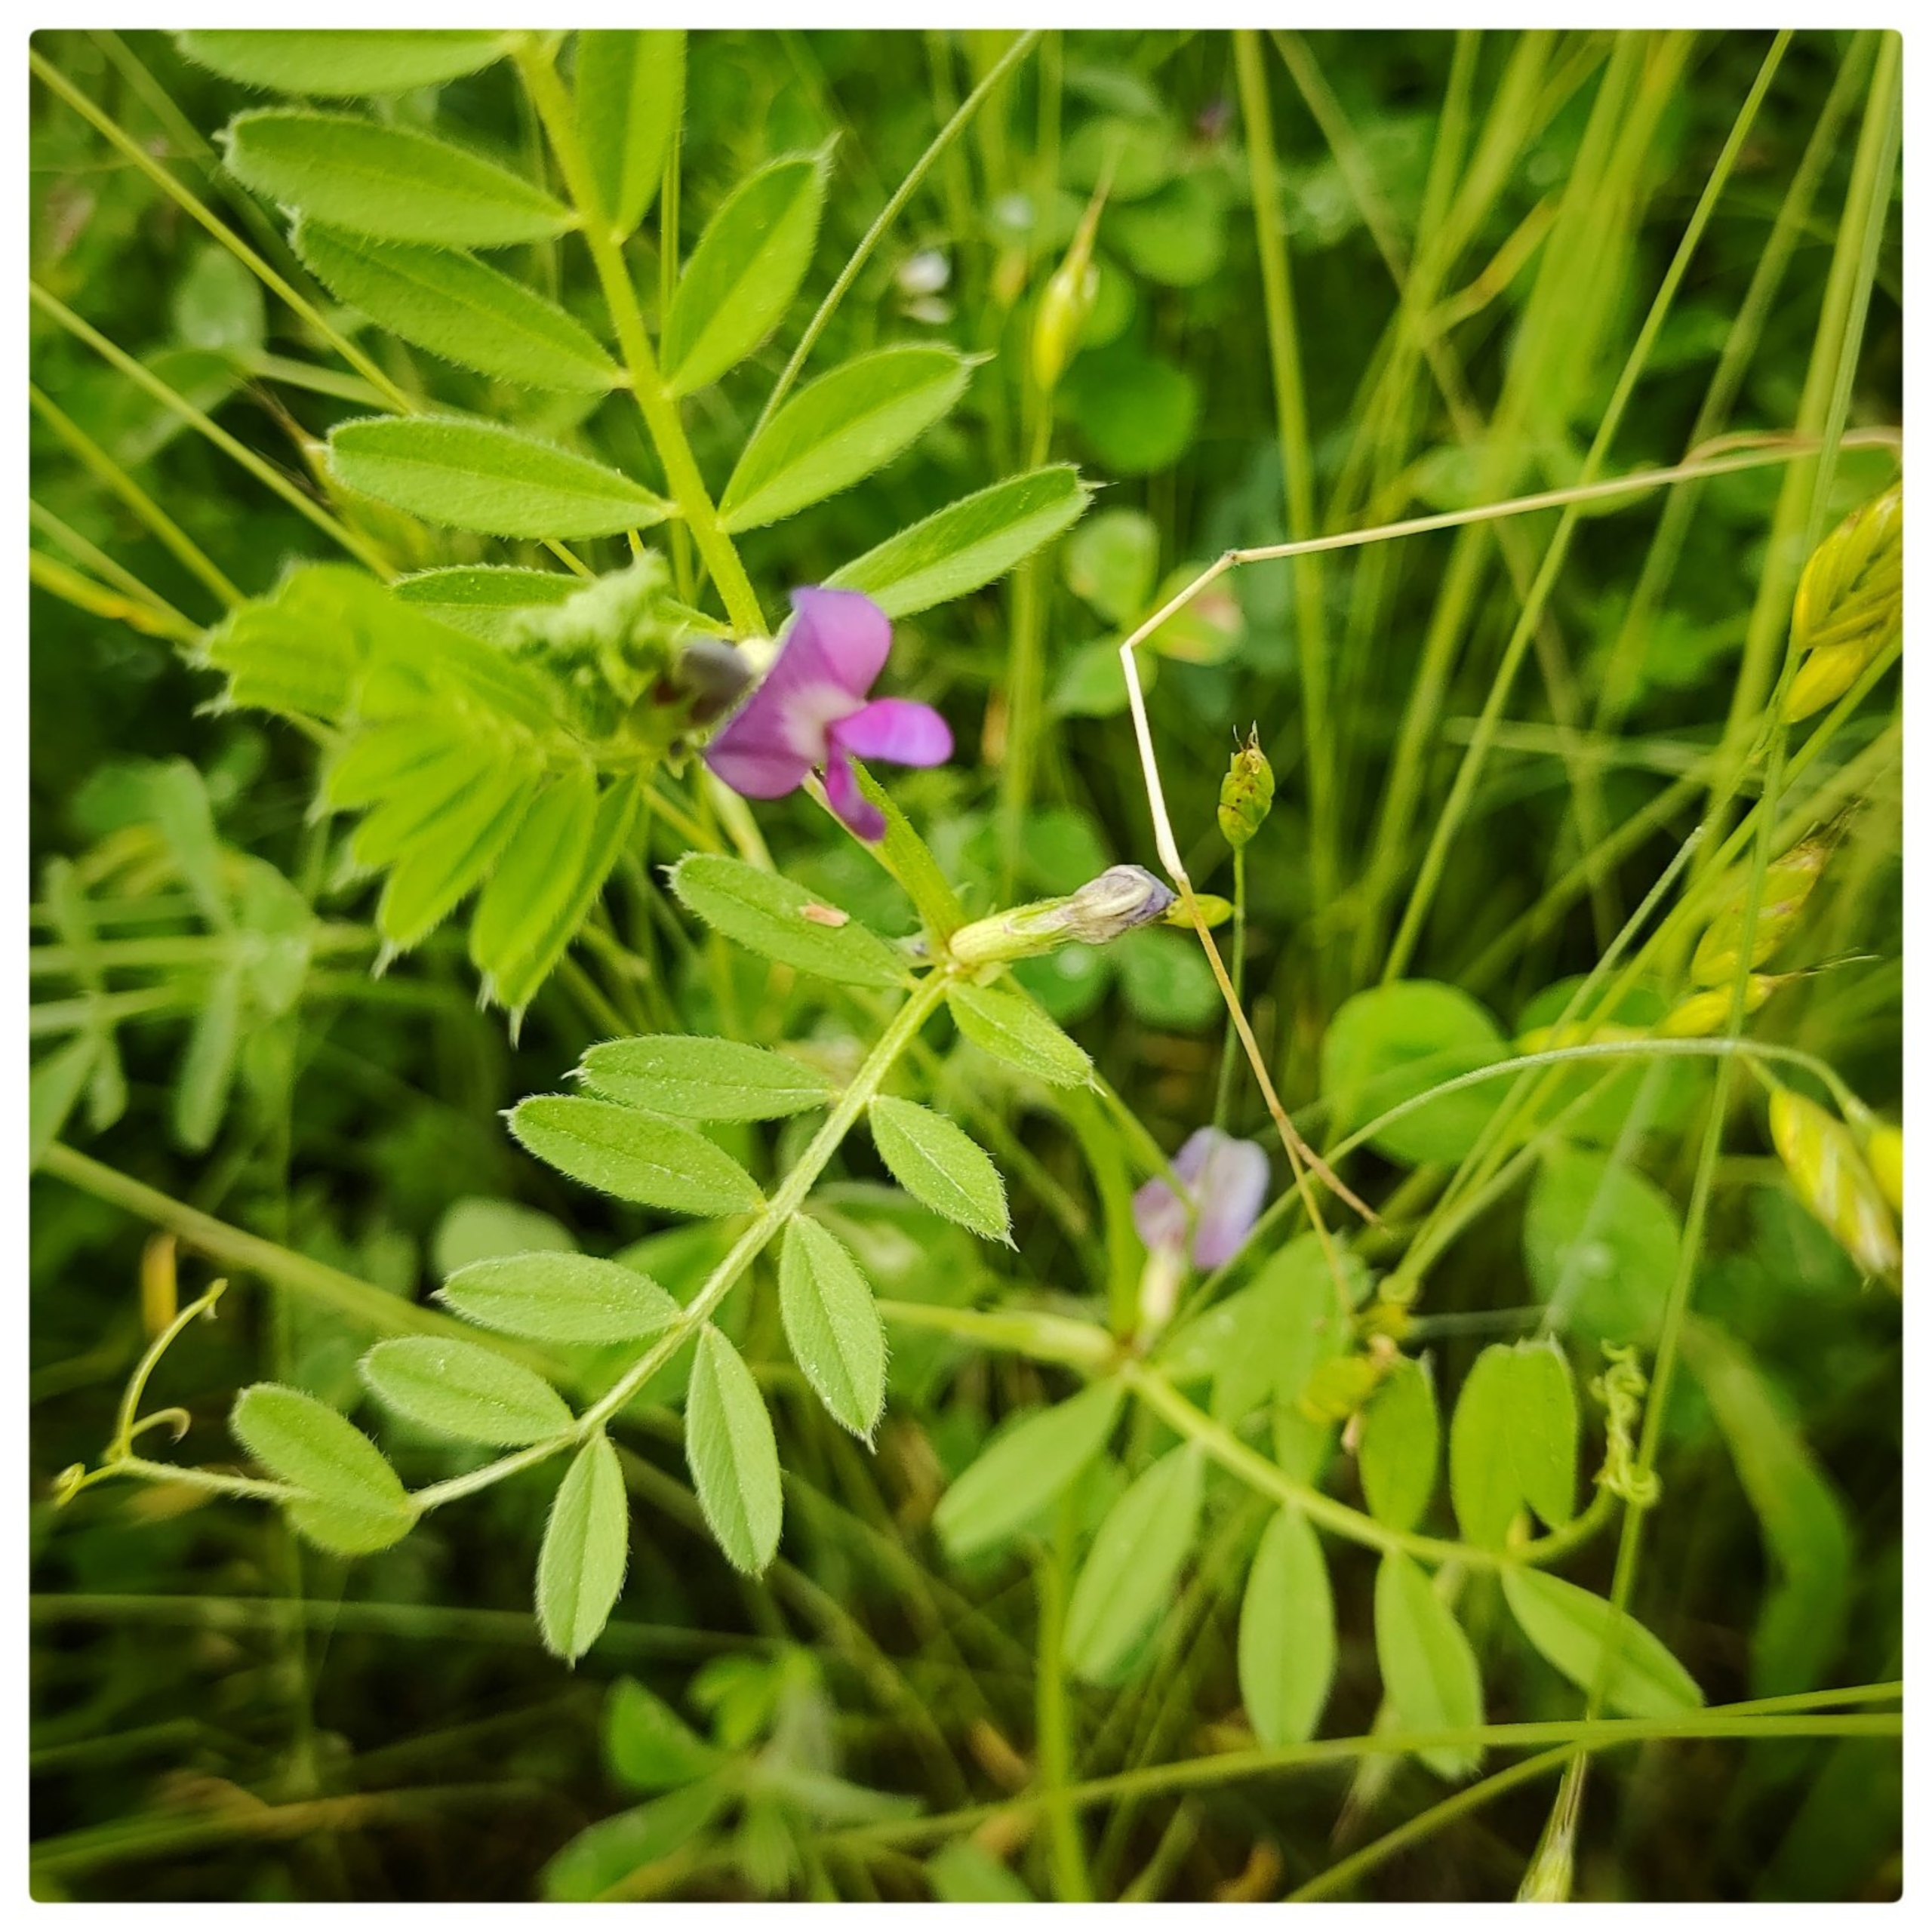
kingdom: Plantae
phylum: Tracheophyta
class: Magnoliopsida
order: Fabales
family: Fabaceae
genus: Vicia
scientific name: Vicia sativa
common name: Foder-vikke
